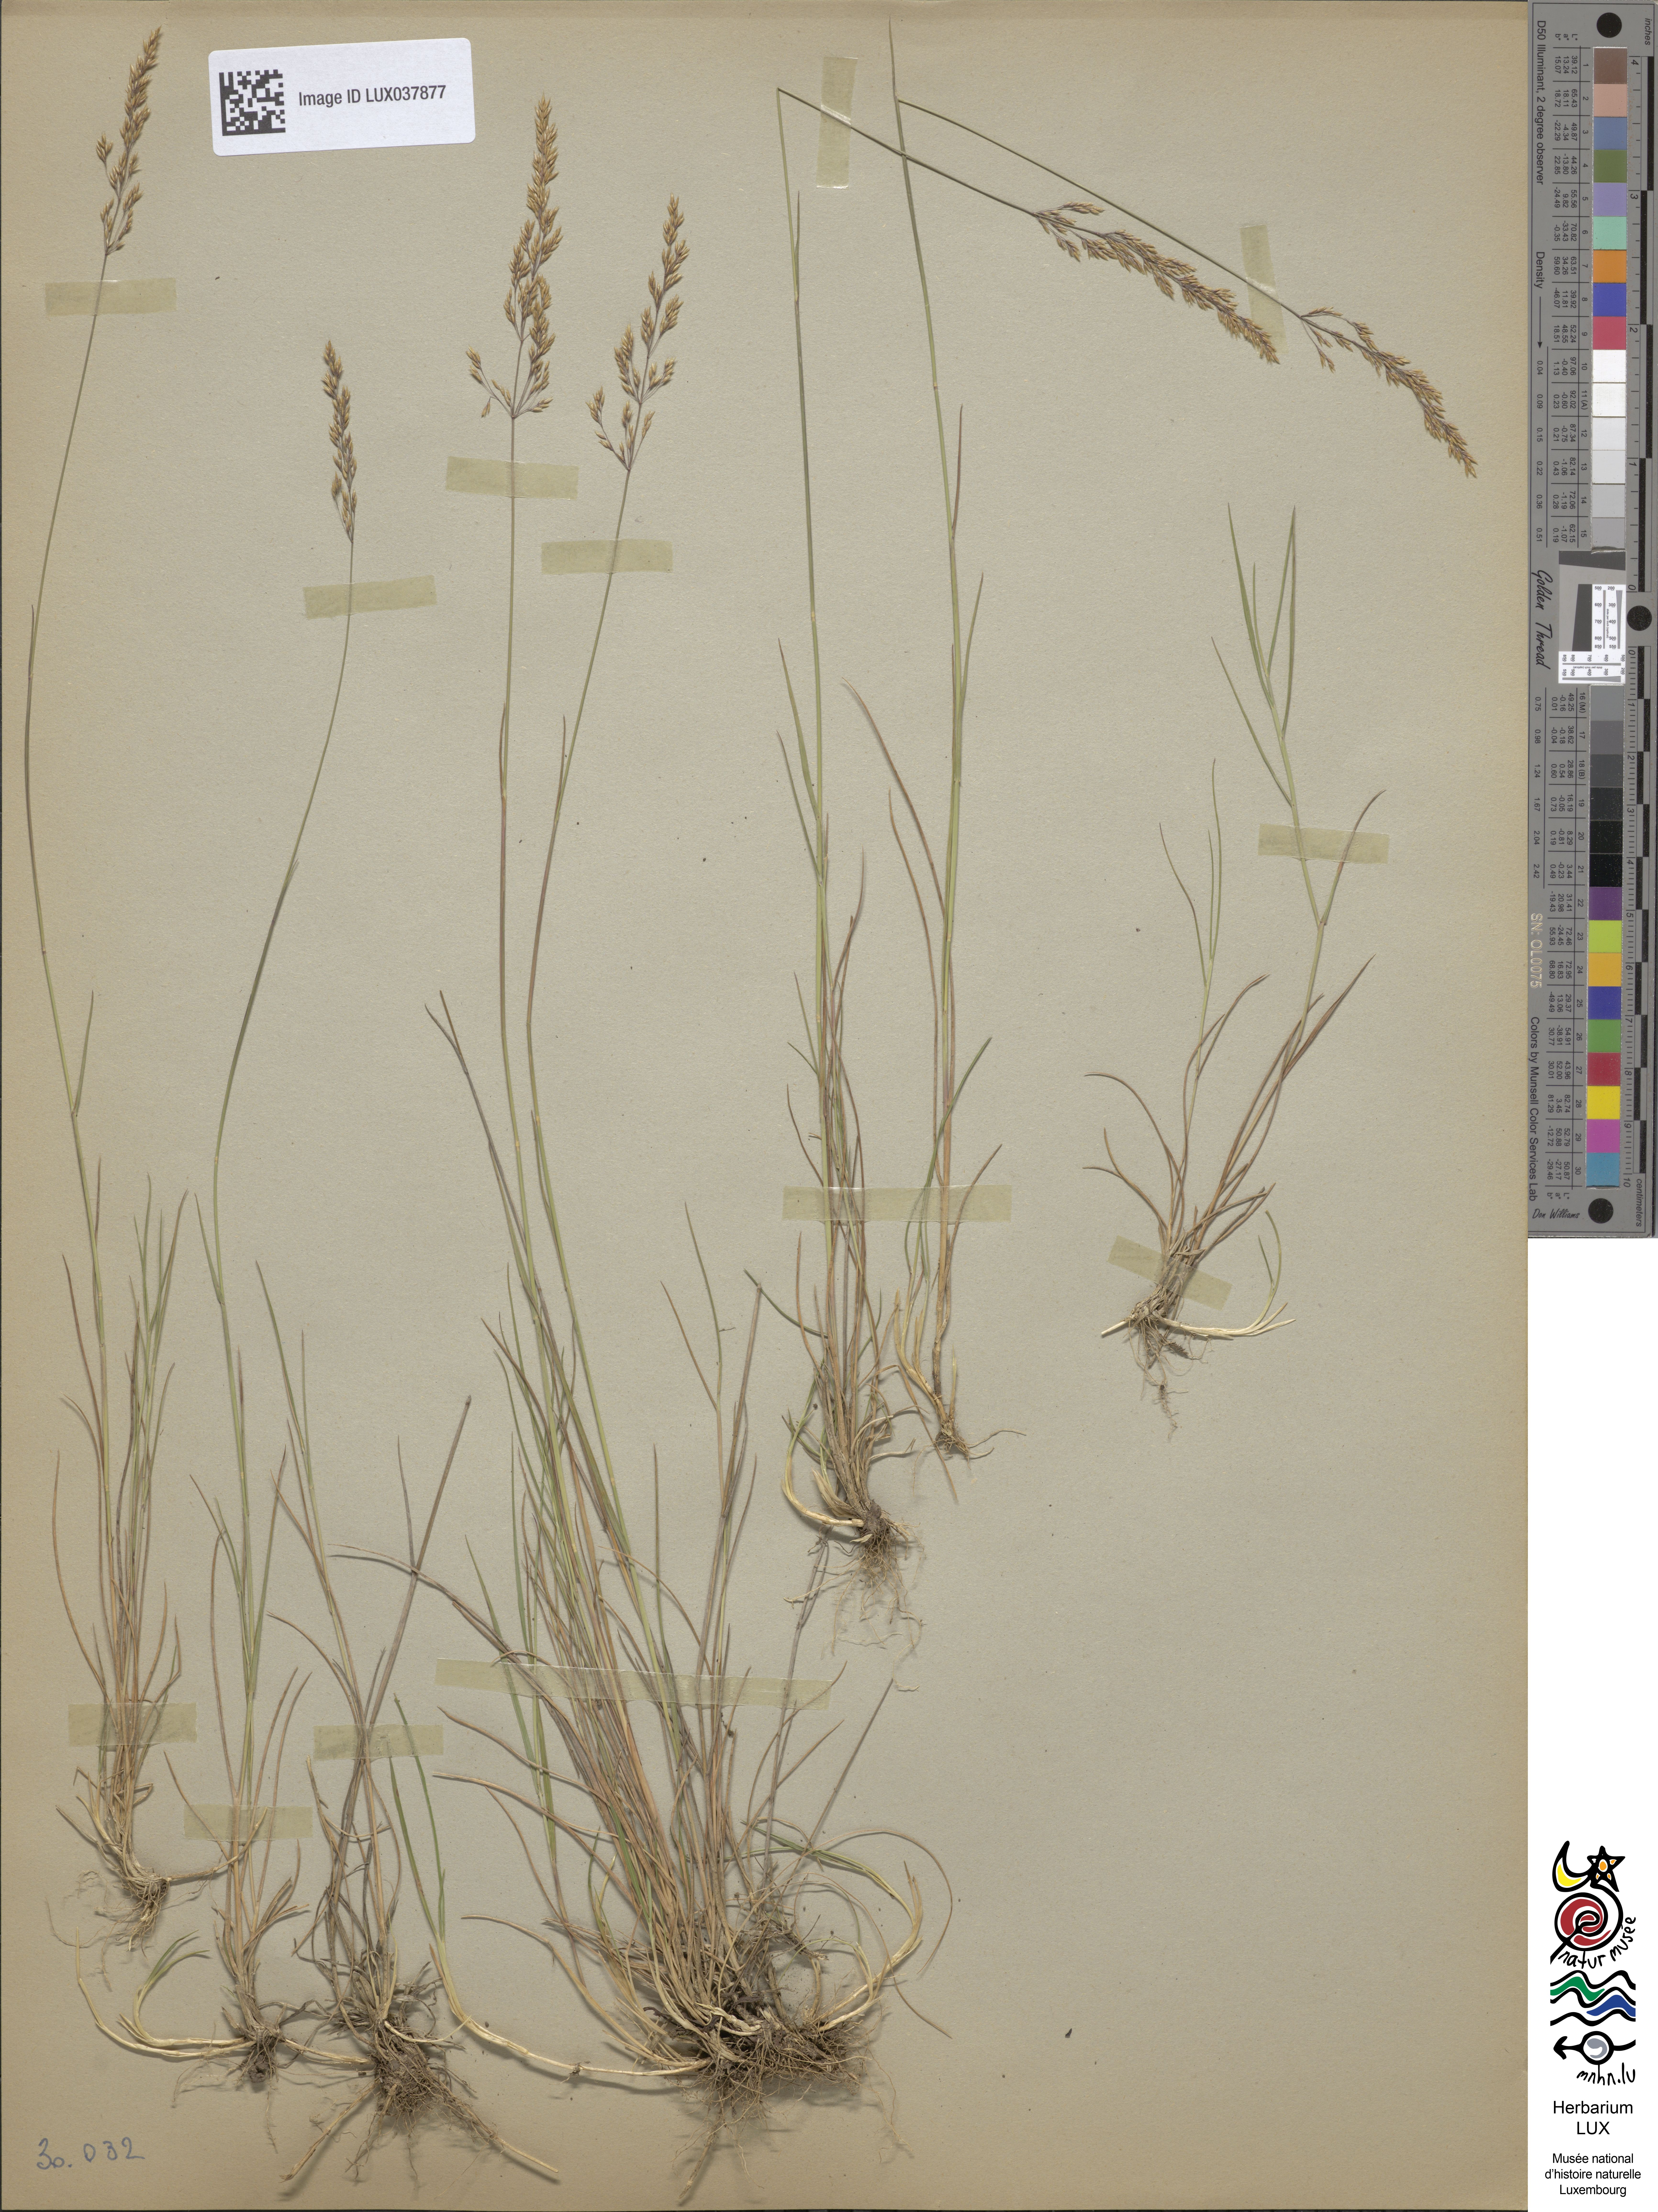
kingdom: Plantae
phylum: Tracheophyta
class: Liliopsida
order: Poales
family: Poaceae
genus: Agrostis
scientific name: Agrostis vinealis
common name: Brown bent
